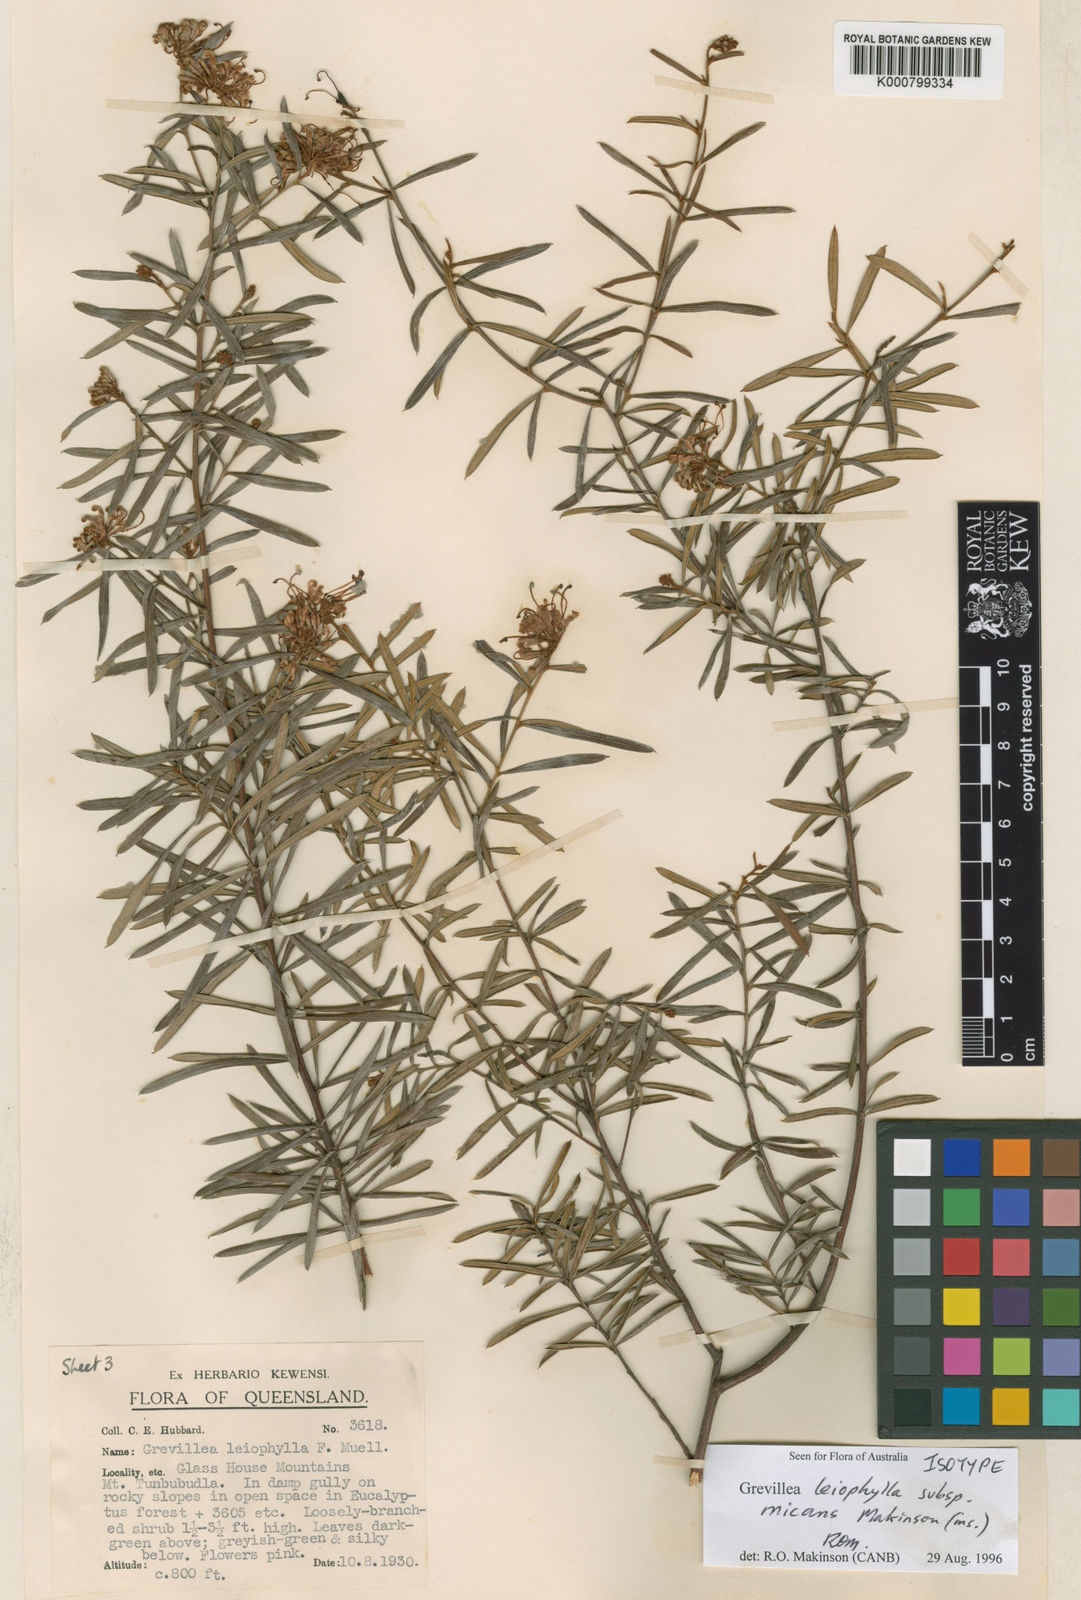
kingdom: Plantae
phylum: Tracheophyta
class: Magnoliopsida
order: Proteales
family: Proteaceae
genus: Grevillea
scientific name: Grevillea leiophylla
